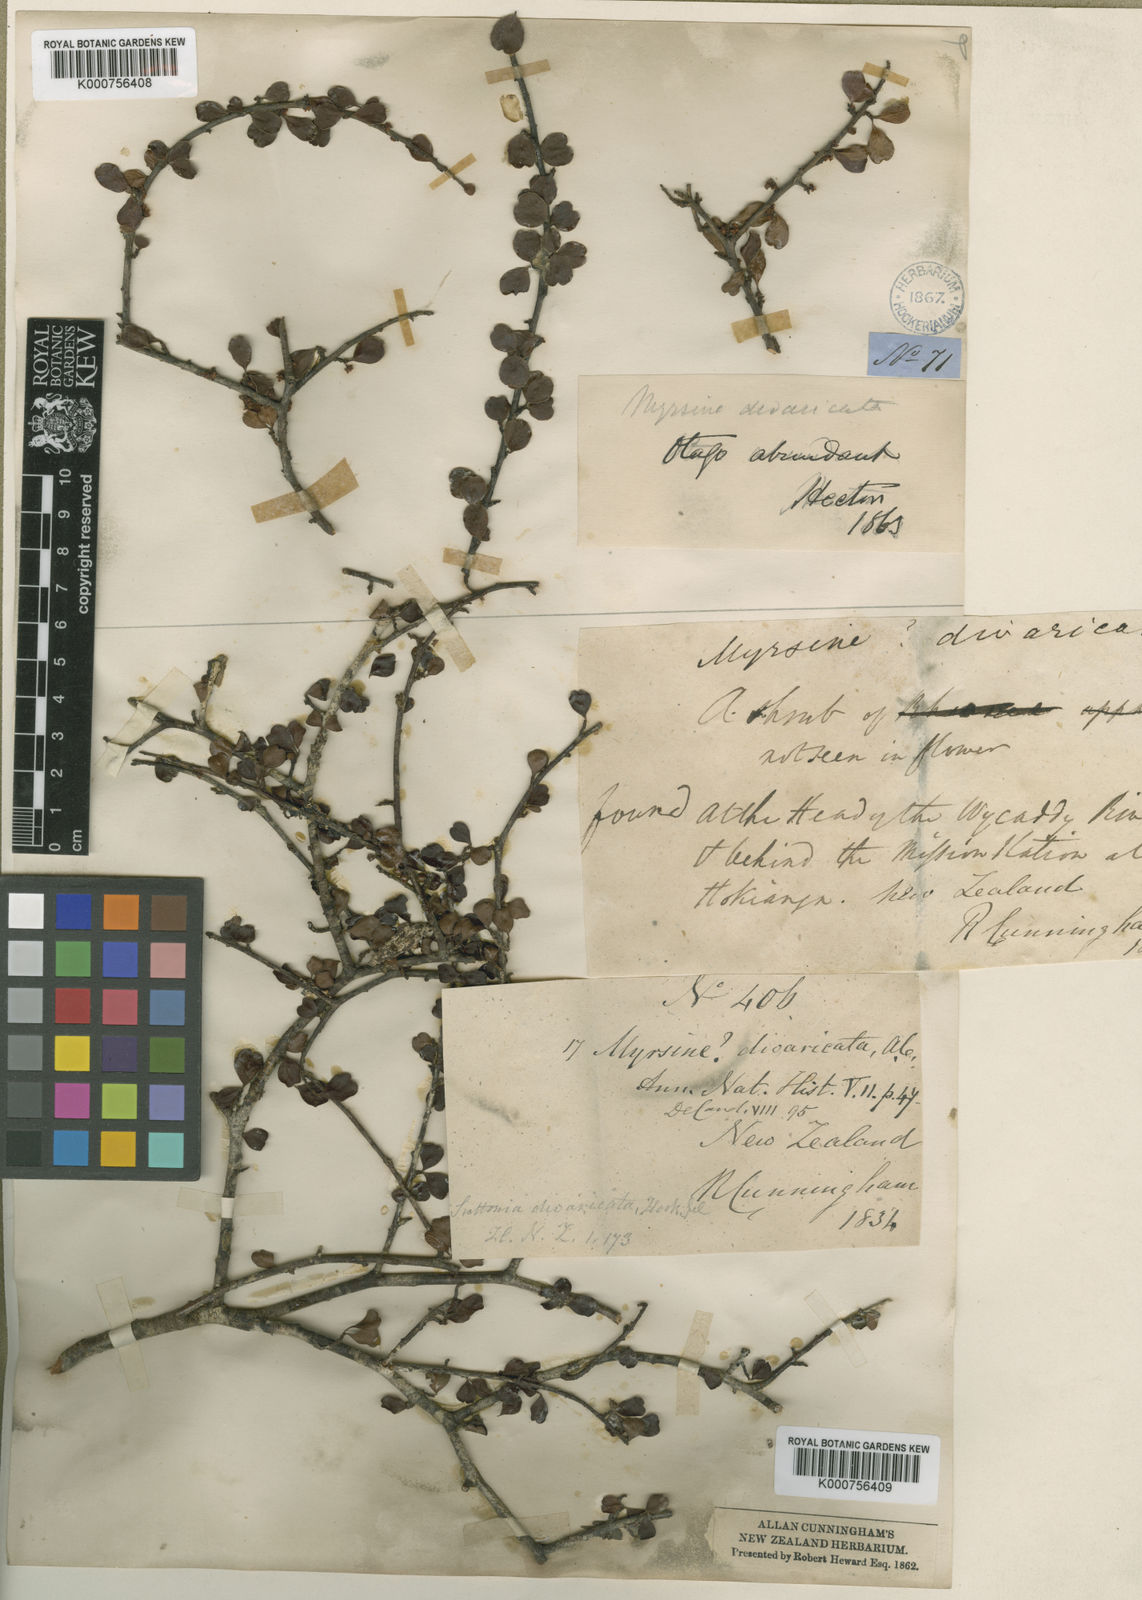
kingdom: Plantae
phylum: Tracheophyta
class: Magnoliopsida
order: Ericales
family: Primulaceae
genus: Myrsine
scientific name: Myrsine divaricata
